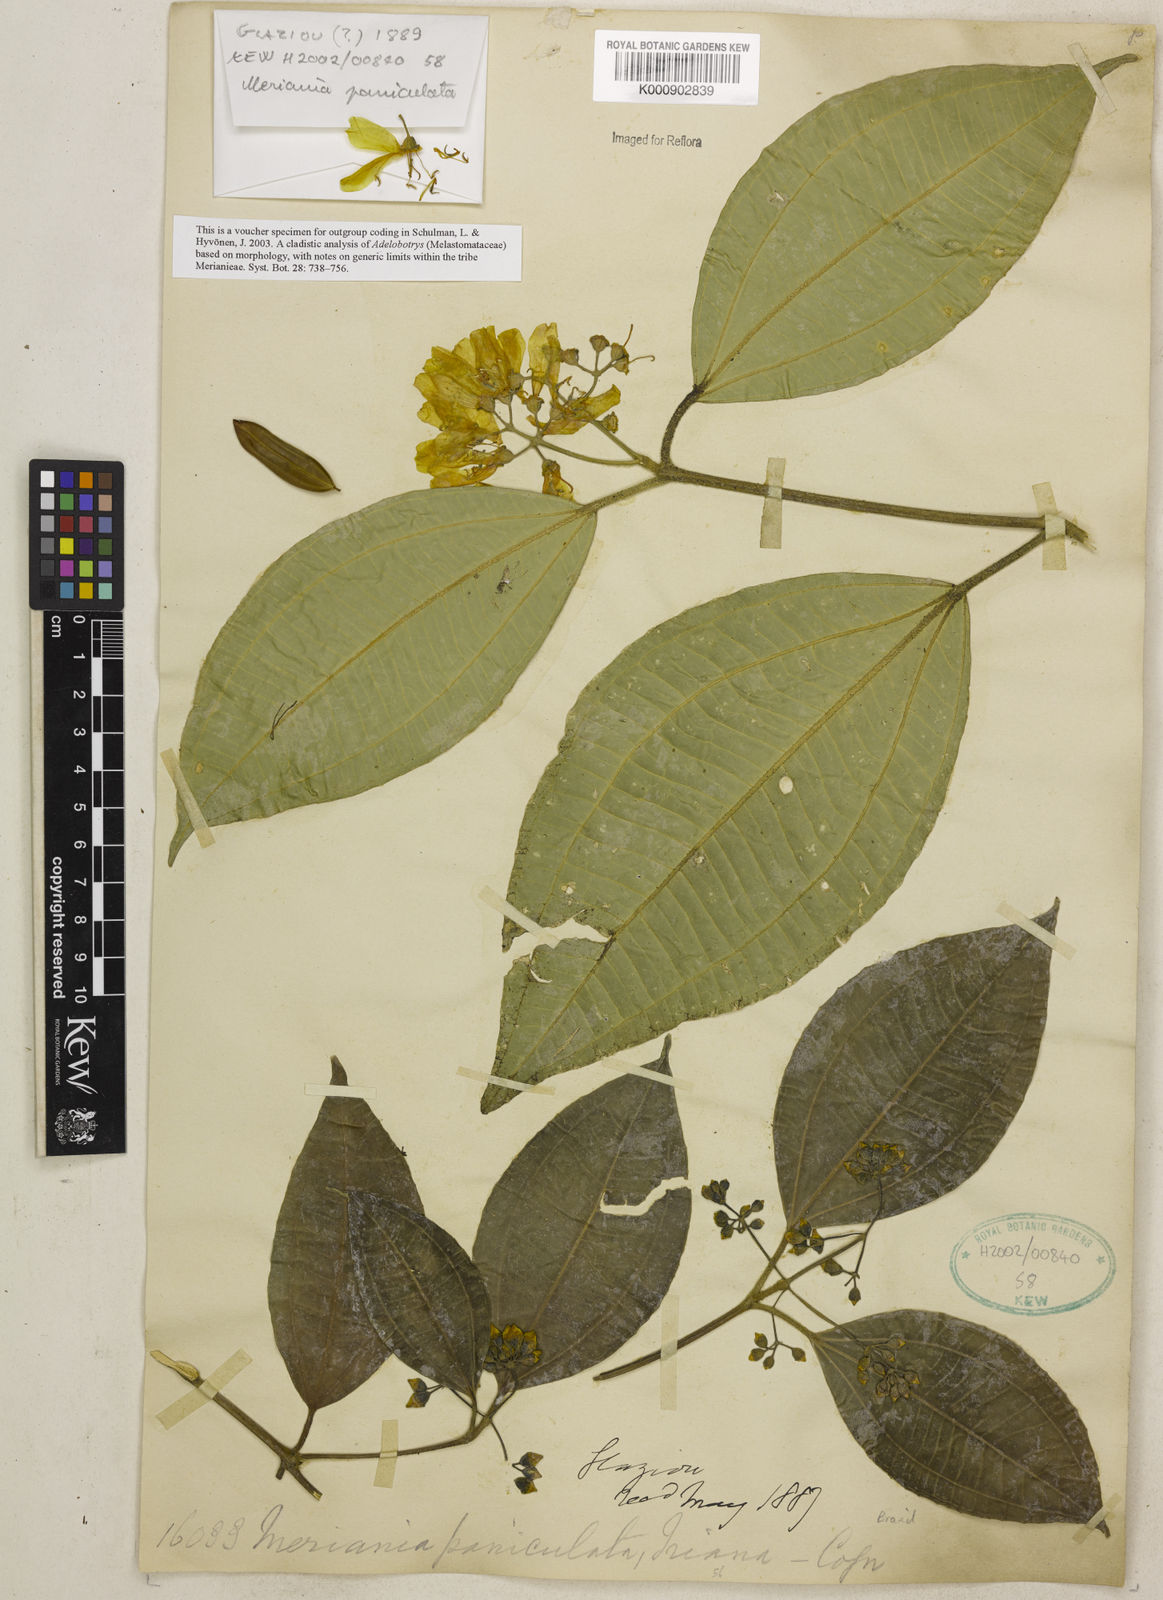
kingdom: Plantae
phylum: Tracheophyta
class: Magnoliopsida
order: Myrtales
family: Melastomataceae
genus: Meriania
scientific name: Meriania paniculata
